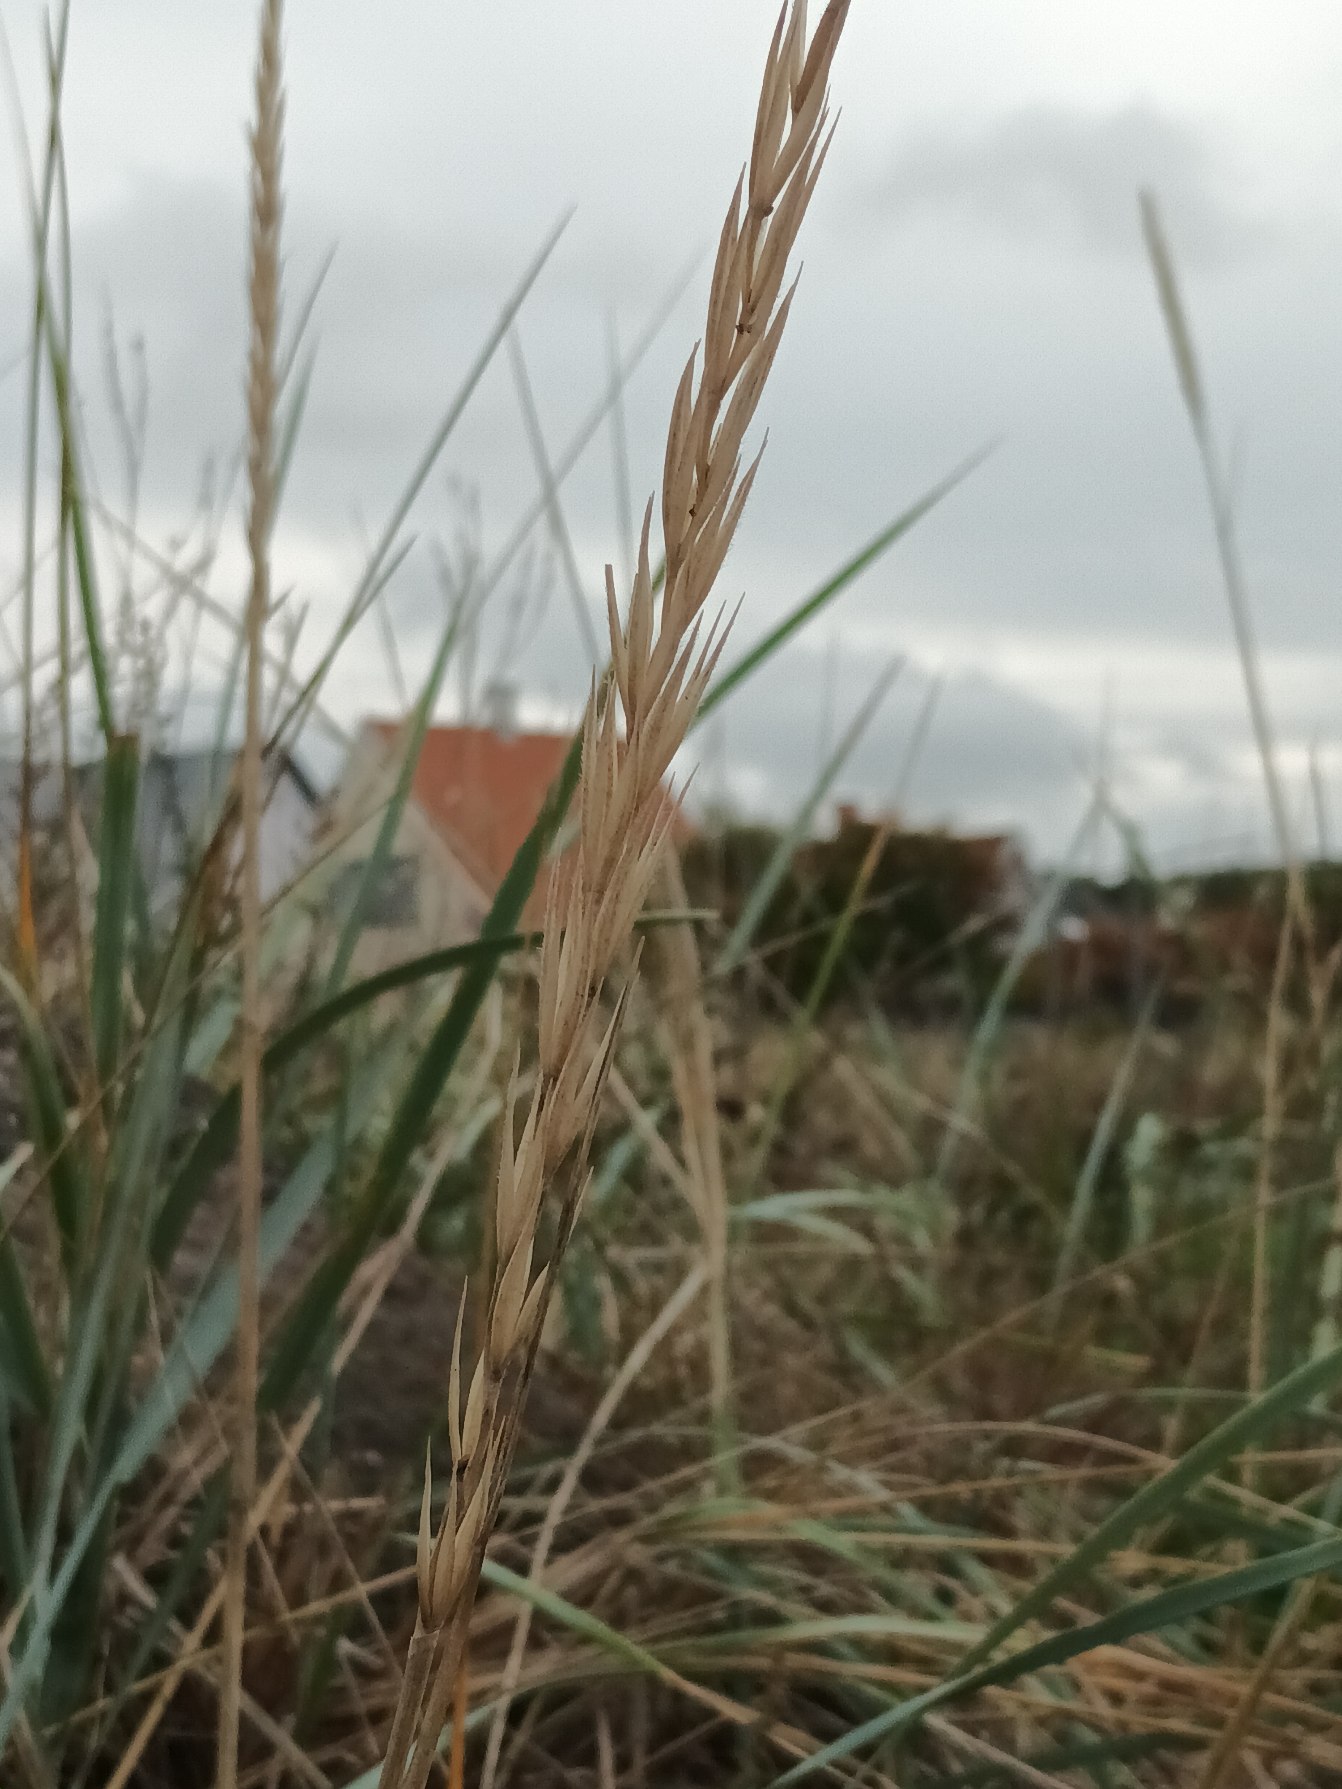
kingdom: Plantae
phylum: Tracheophyta
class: Liliopsida
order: Poales
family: Poaceae
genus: Leymus
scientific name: Leymus arenarius
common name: Marehalm
